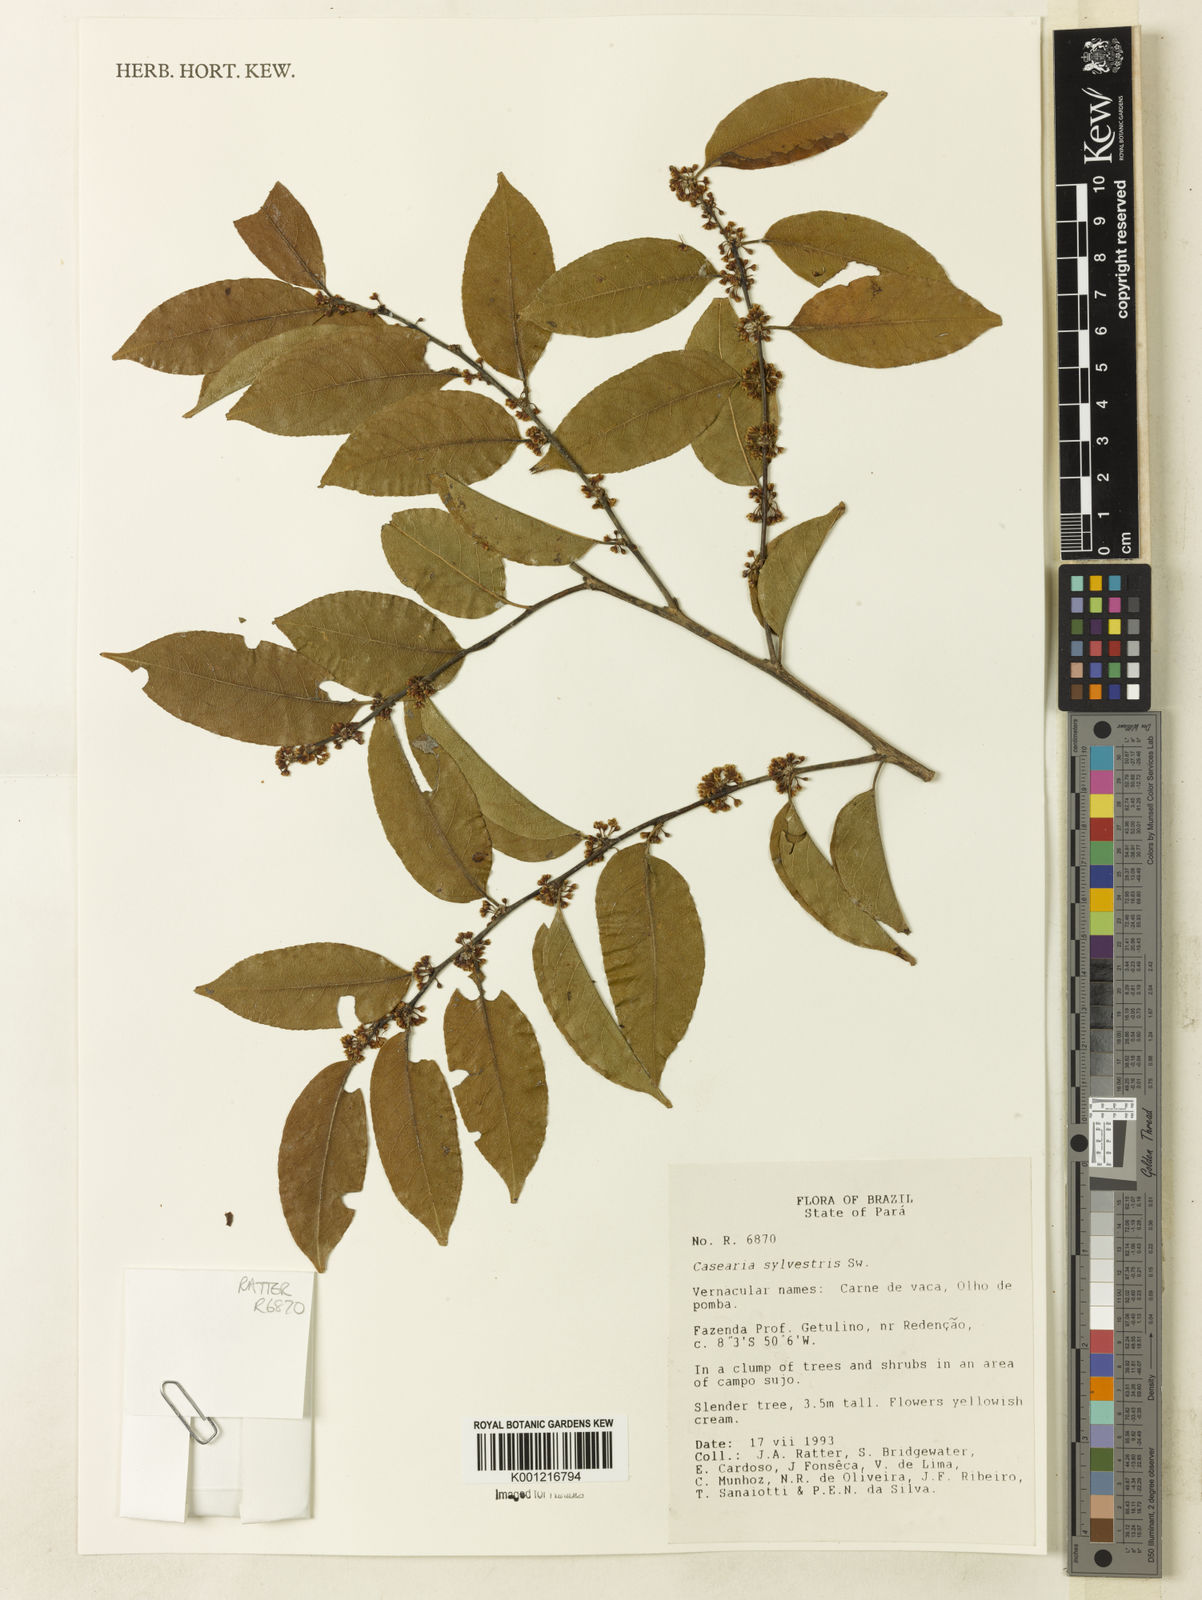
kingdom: Plantae
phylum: Tracheophyta
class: Magnoliopsida
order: Malpighiales
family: Salicaceae
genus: Casearia
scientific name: Casearia sylvestris
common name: Wild sage
